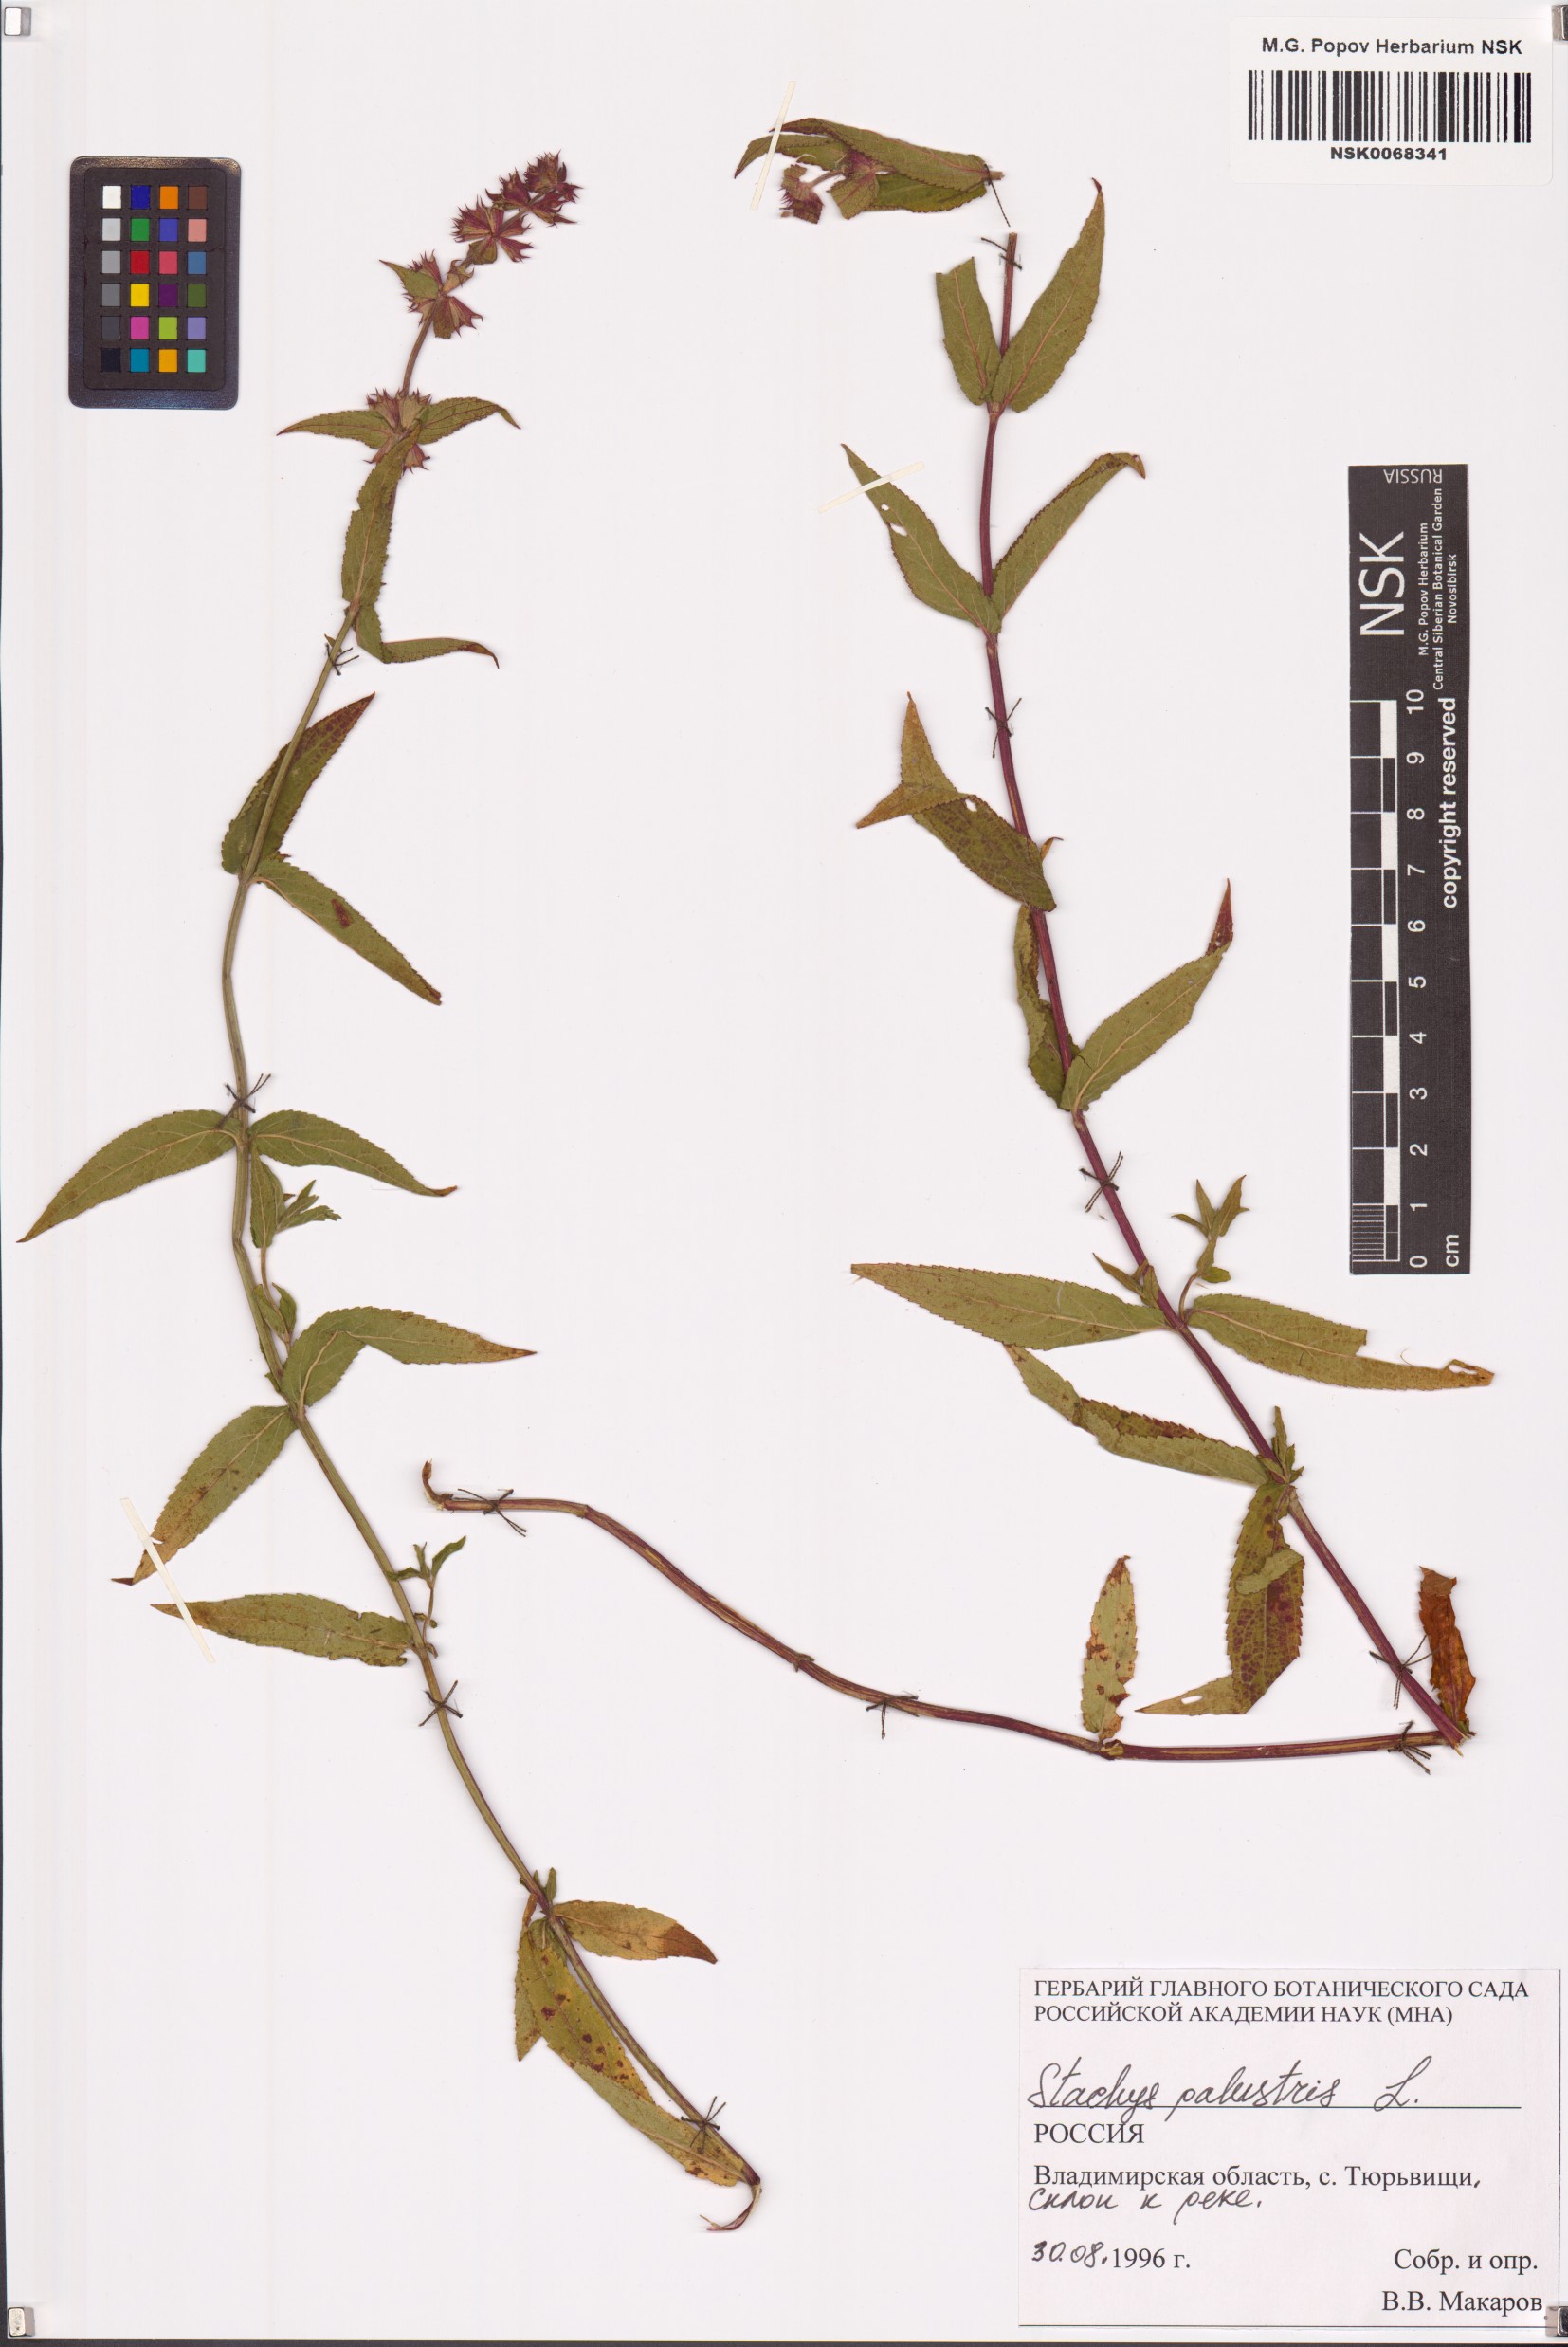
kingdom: Plantae
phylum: Tracheophyta
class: Magnoliopsida
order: Lamiales
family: Lamiaceae
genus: Stachys
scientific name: Stachys palustris
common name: Marsh woundwort
